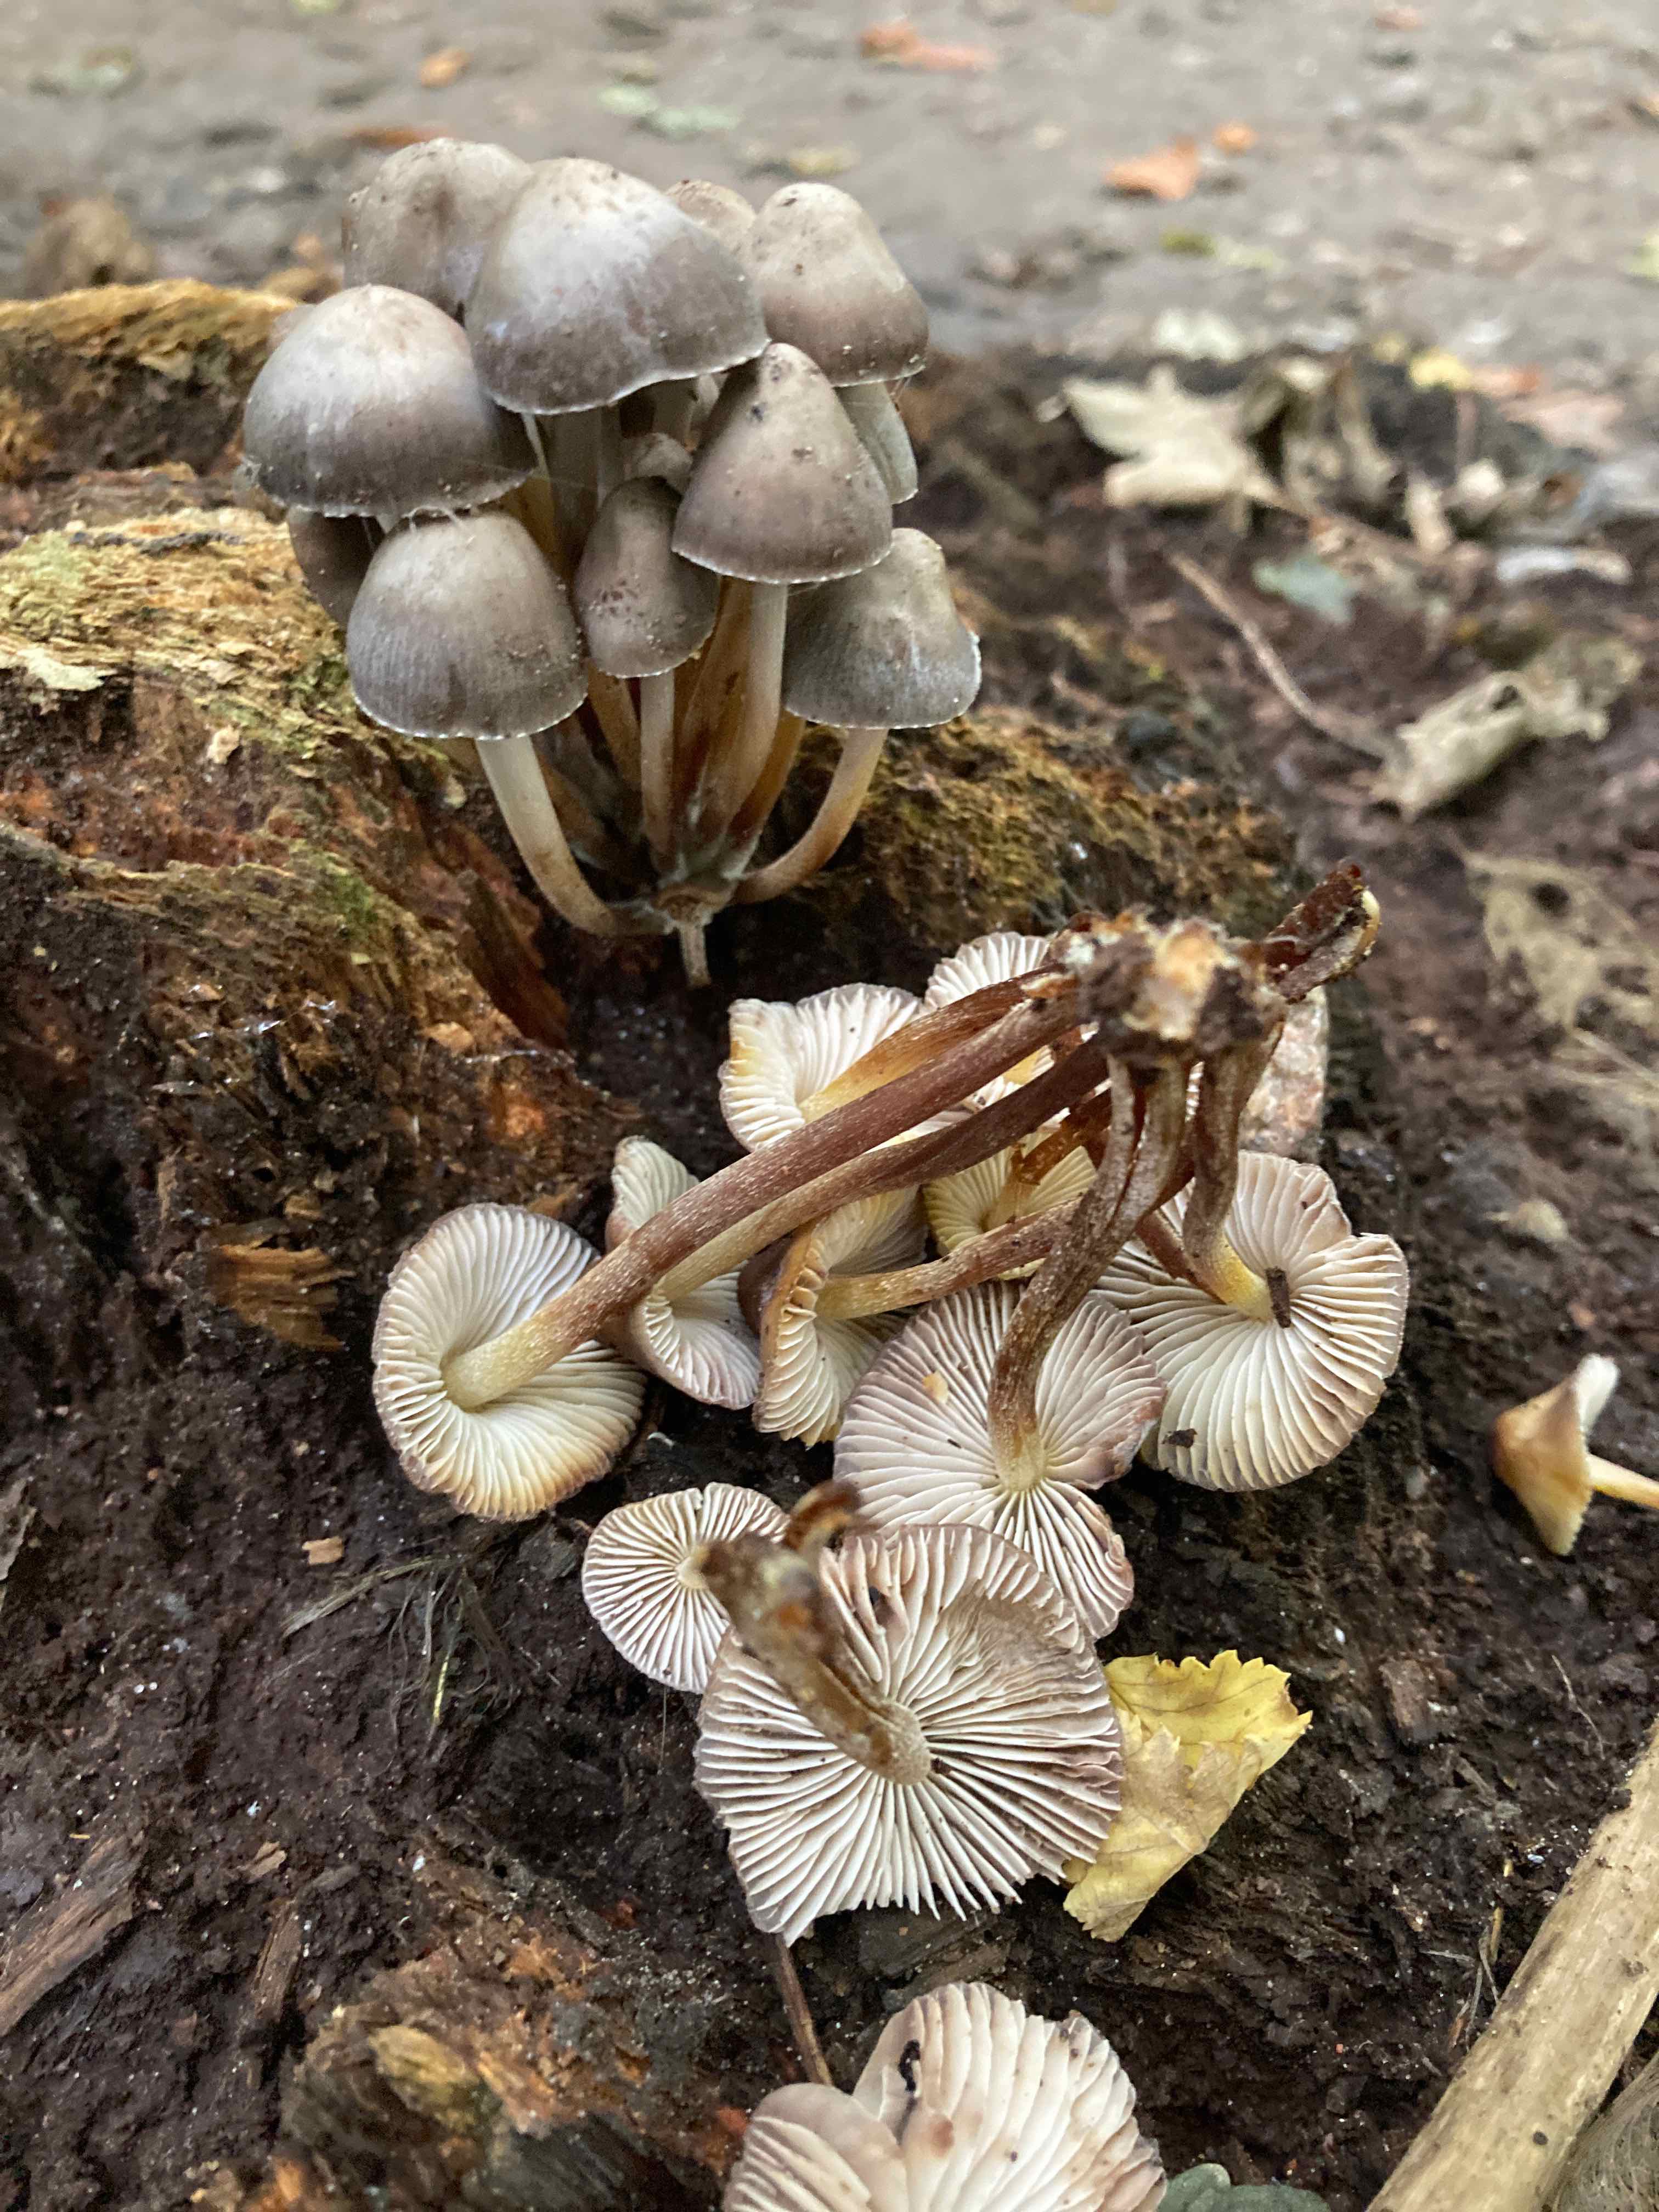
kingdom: Fungi
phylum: Basidiomycota
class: Agaricomycetes
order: Agaricales
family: Mycenaceae
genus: Mycena
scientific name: Mycena inclinata
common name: nikkende huesvamp
